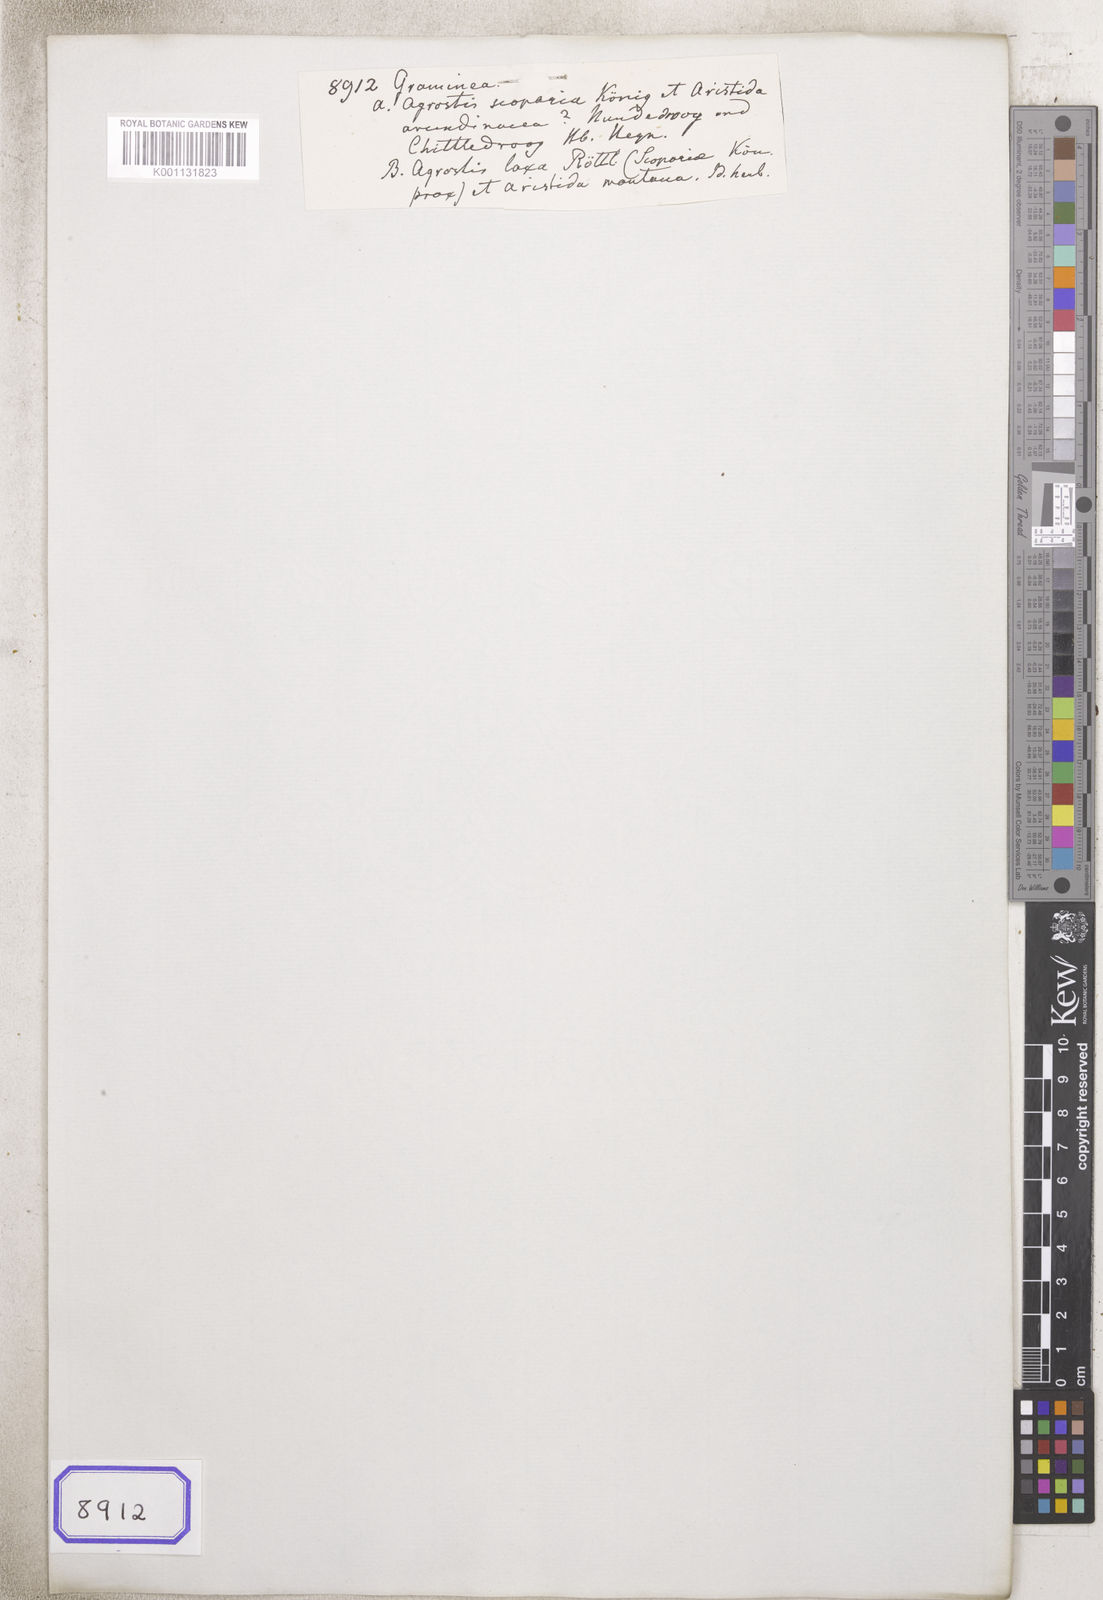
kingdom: Plantae
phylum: Tracheophyta
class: Liliopsida
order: Poales
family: Poaceae
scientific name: Poaceae
